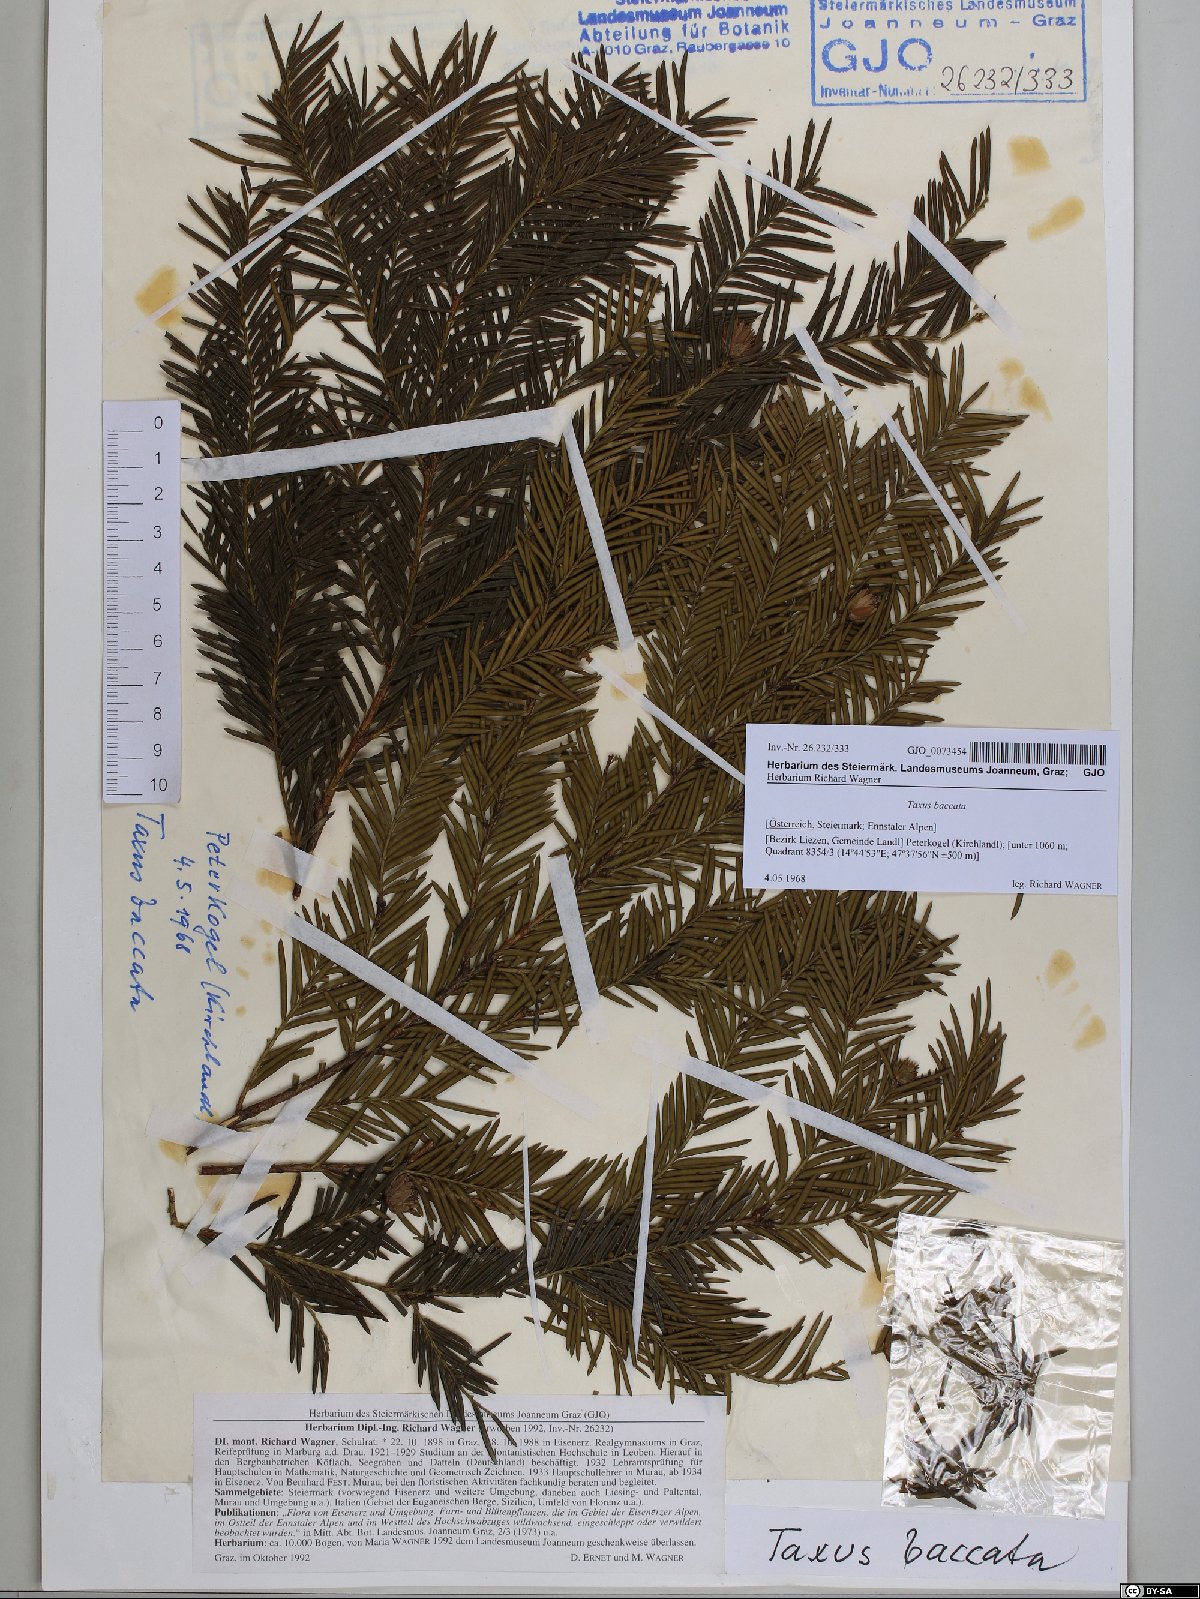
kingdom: Plantae
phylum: Tracheophyta
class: Pinopsida
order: Pinales
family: Taxaceae
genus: Taxus
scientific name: Taxus baccata
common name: Yew
